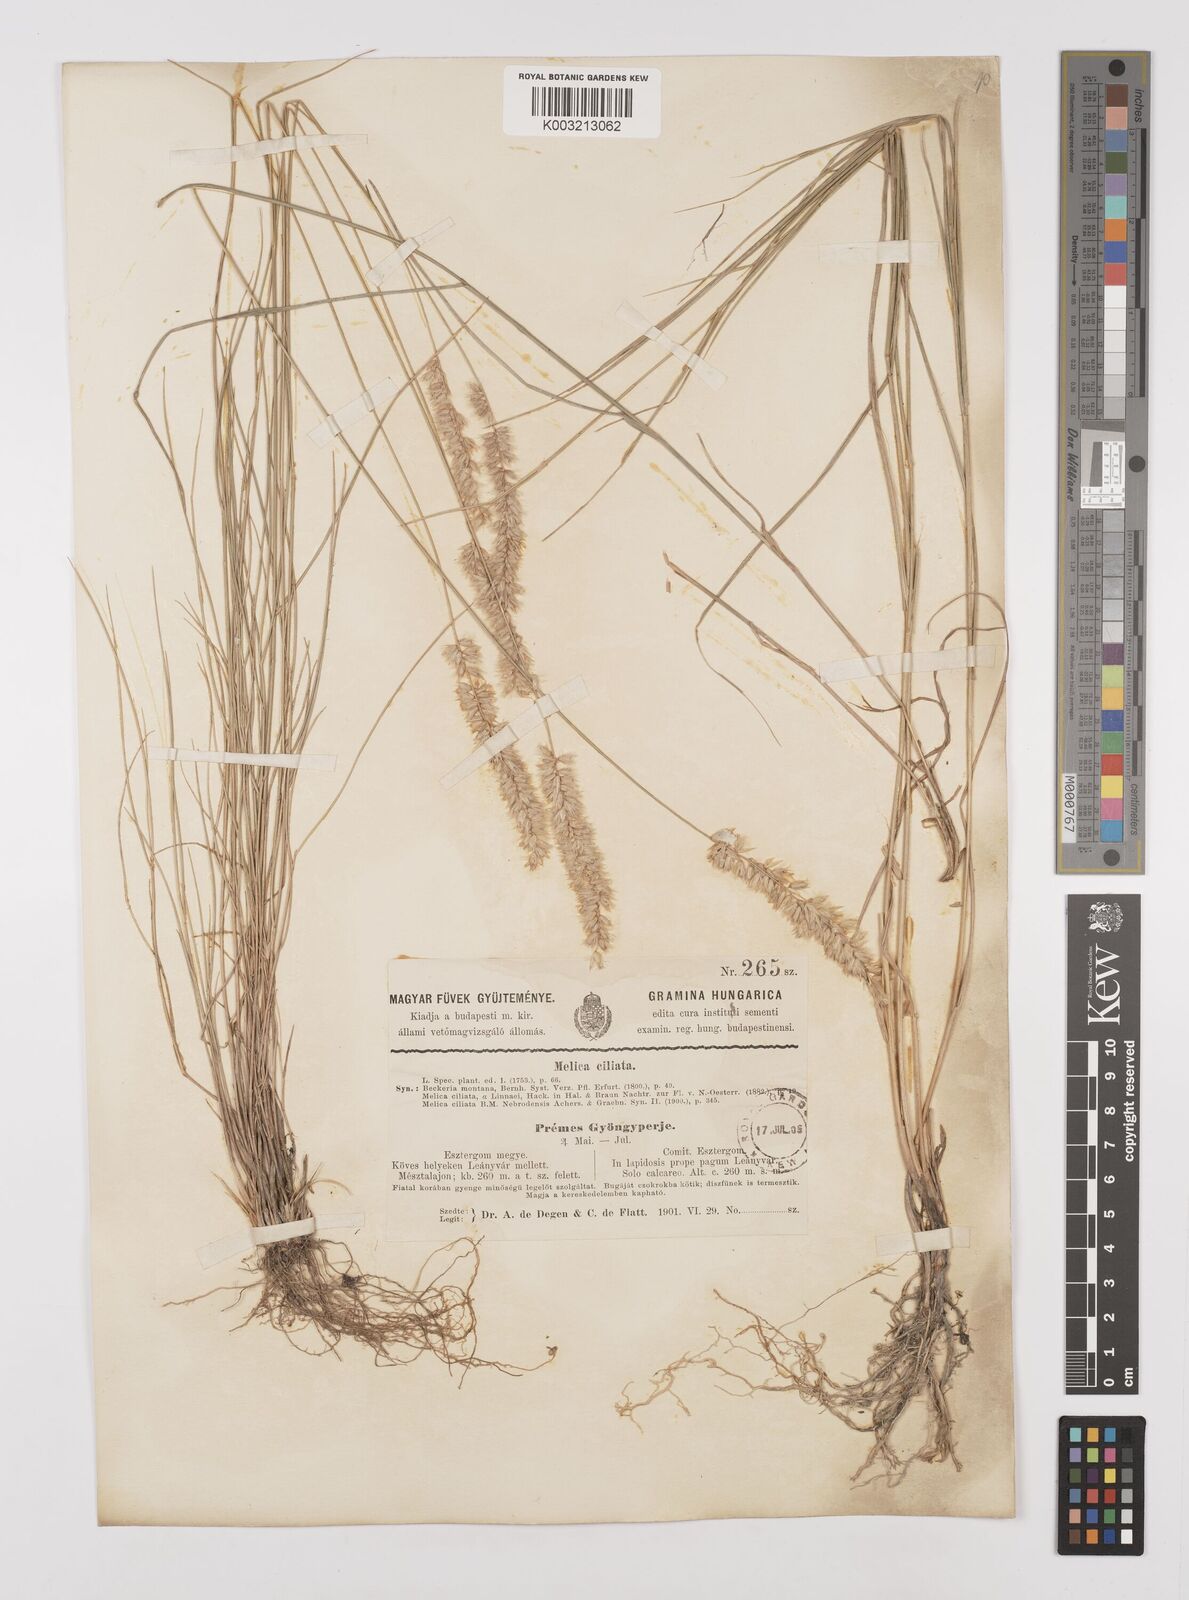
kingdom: Plantae
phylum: Tracheophyta
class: Liliopsida
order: Poales
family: Poaceae
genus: Melica
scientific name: Melica ciliata
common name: Hairy melicgrass
